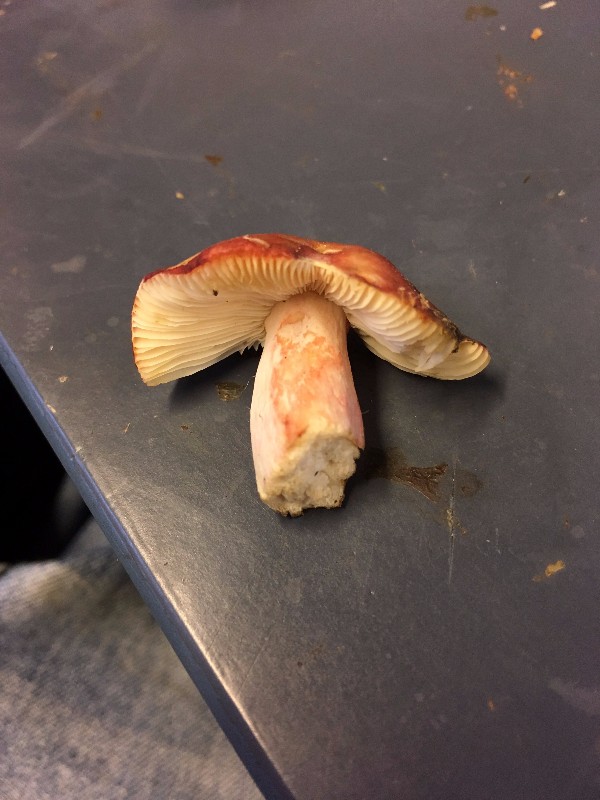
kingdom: Fungi
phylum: Basidiomycota
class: Agaricomycetes
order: Russulales
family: Russulaceae
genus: Russula
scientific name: Russula sanguinea
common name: blodrød skørhat
